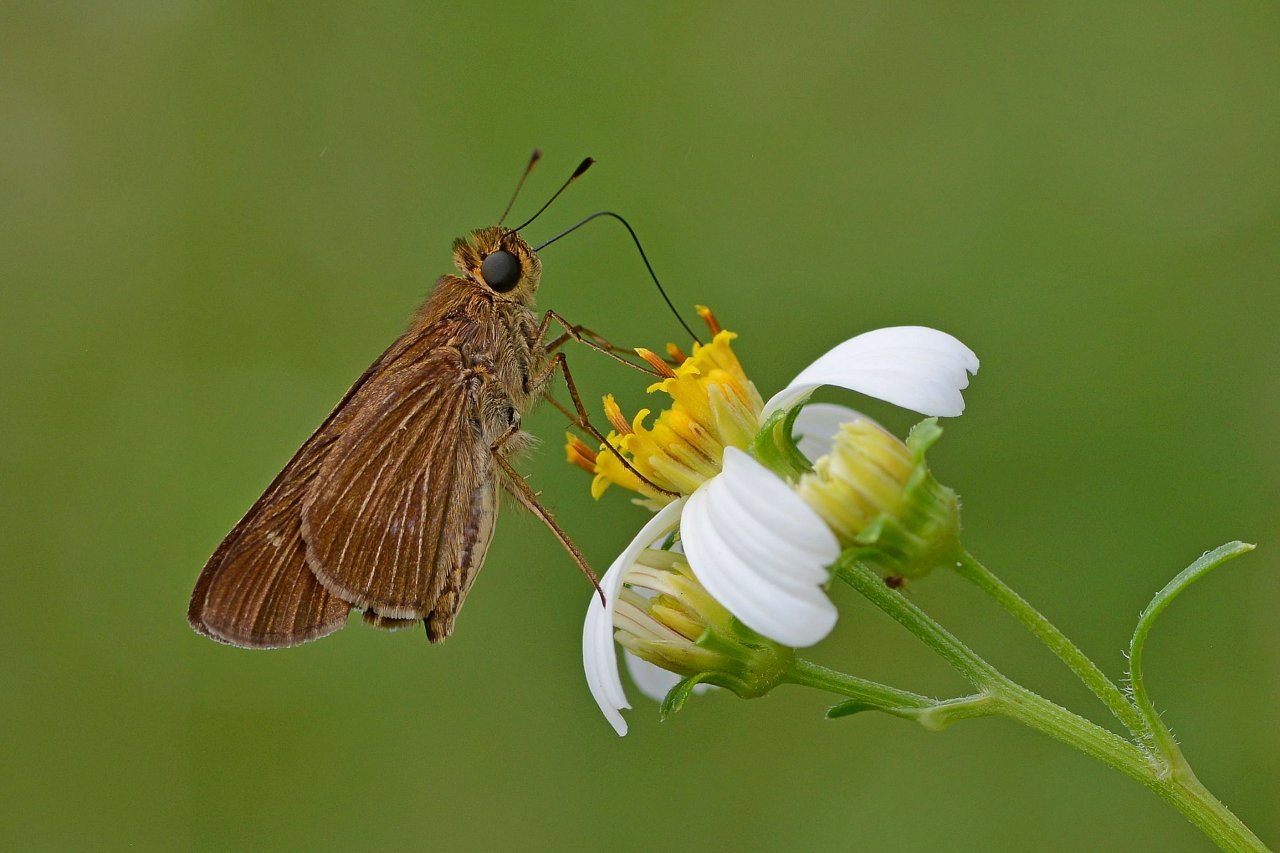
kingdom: Animalia
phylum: Arthropoda
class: Insecta
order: Lepidoptera
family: Hesperiidae
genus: Panoquina
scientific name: Panoquina ocola
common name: Ocola Skipper
